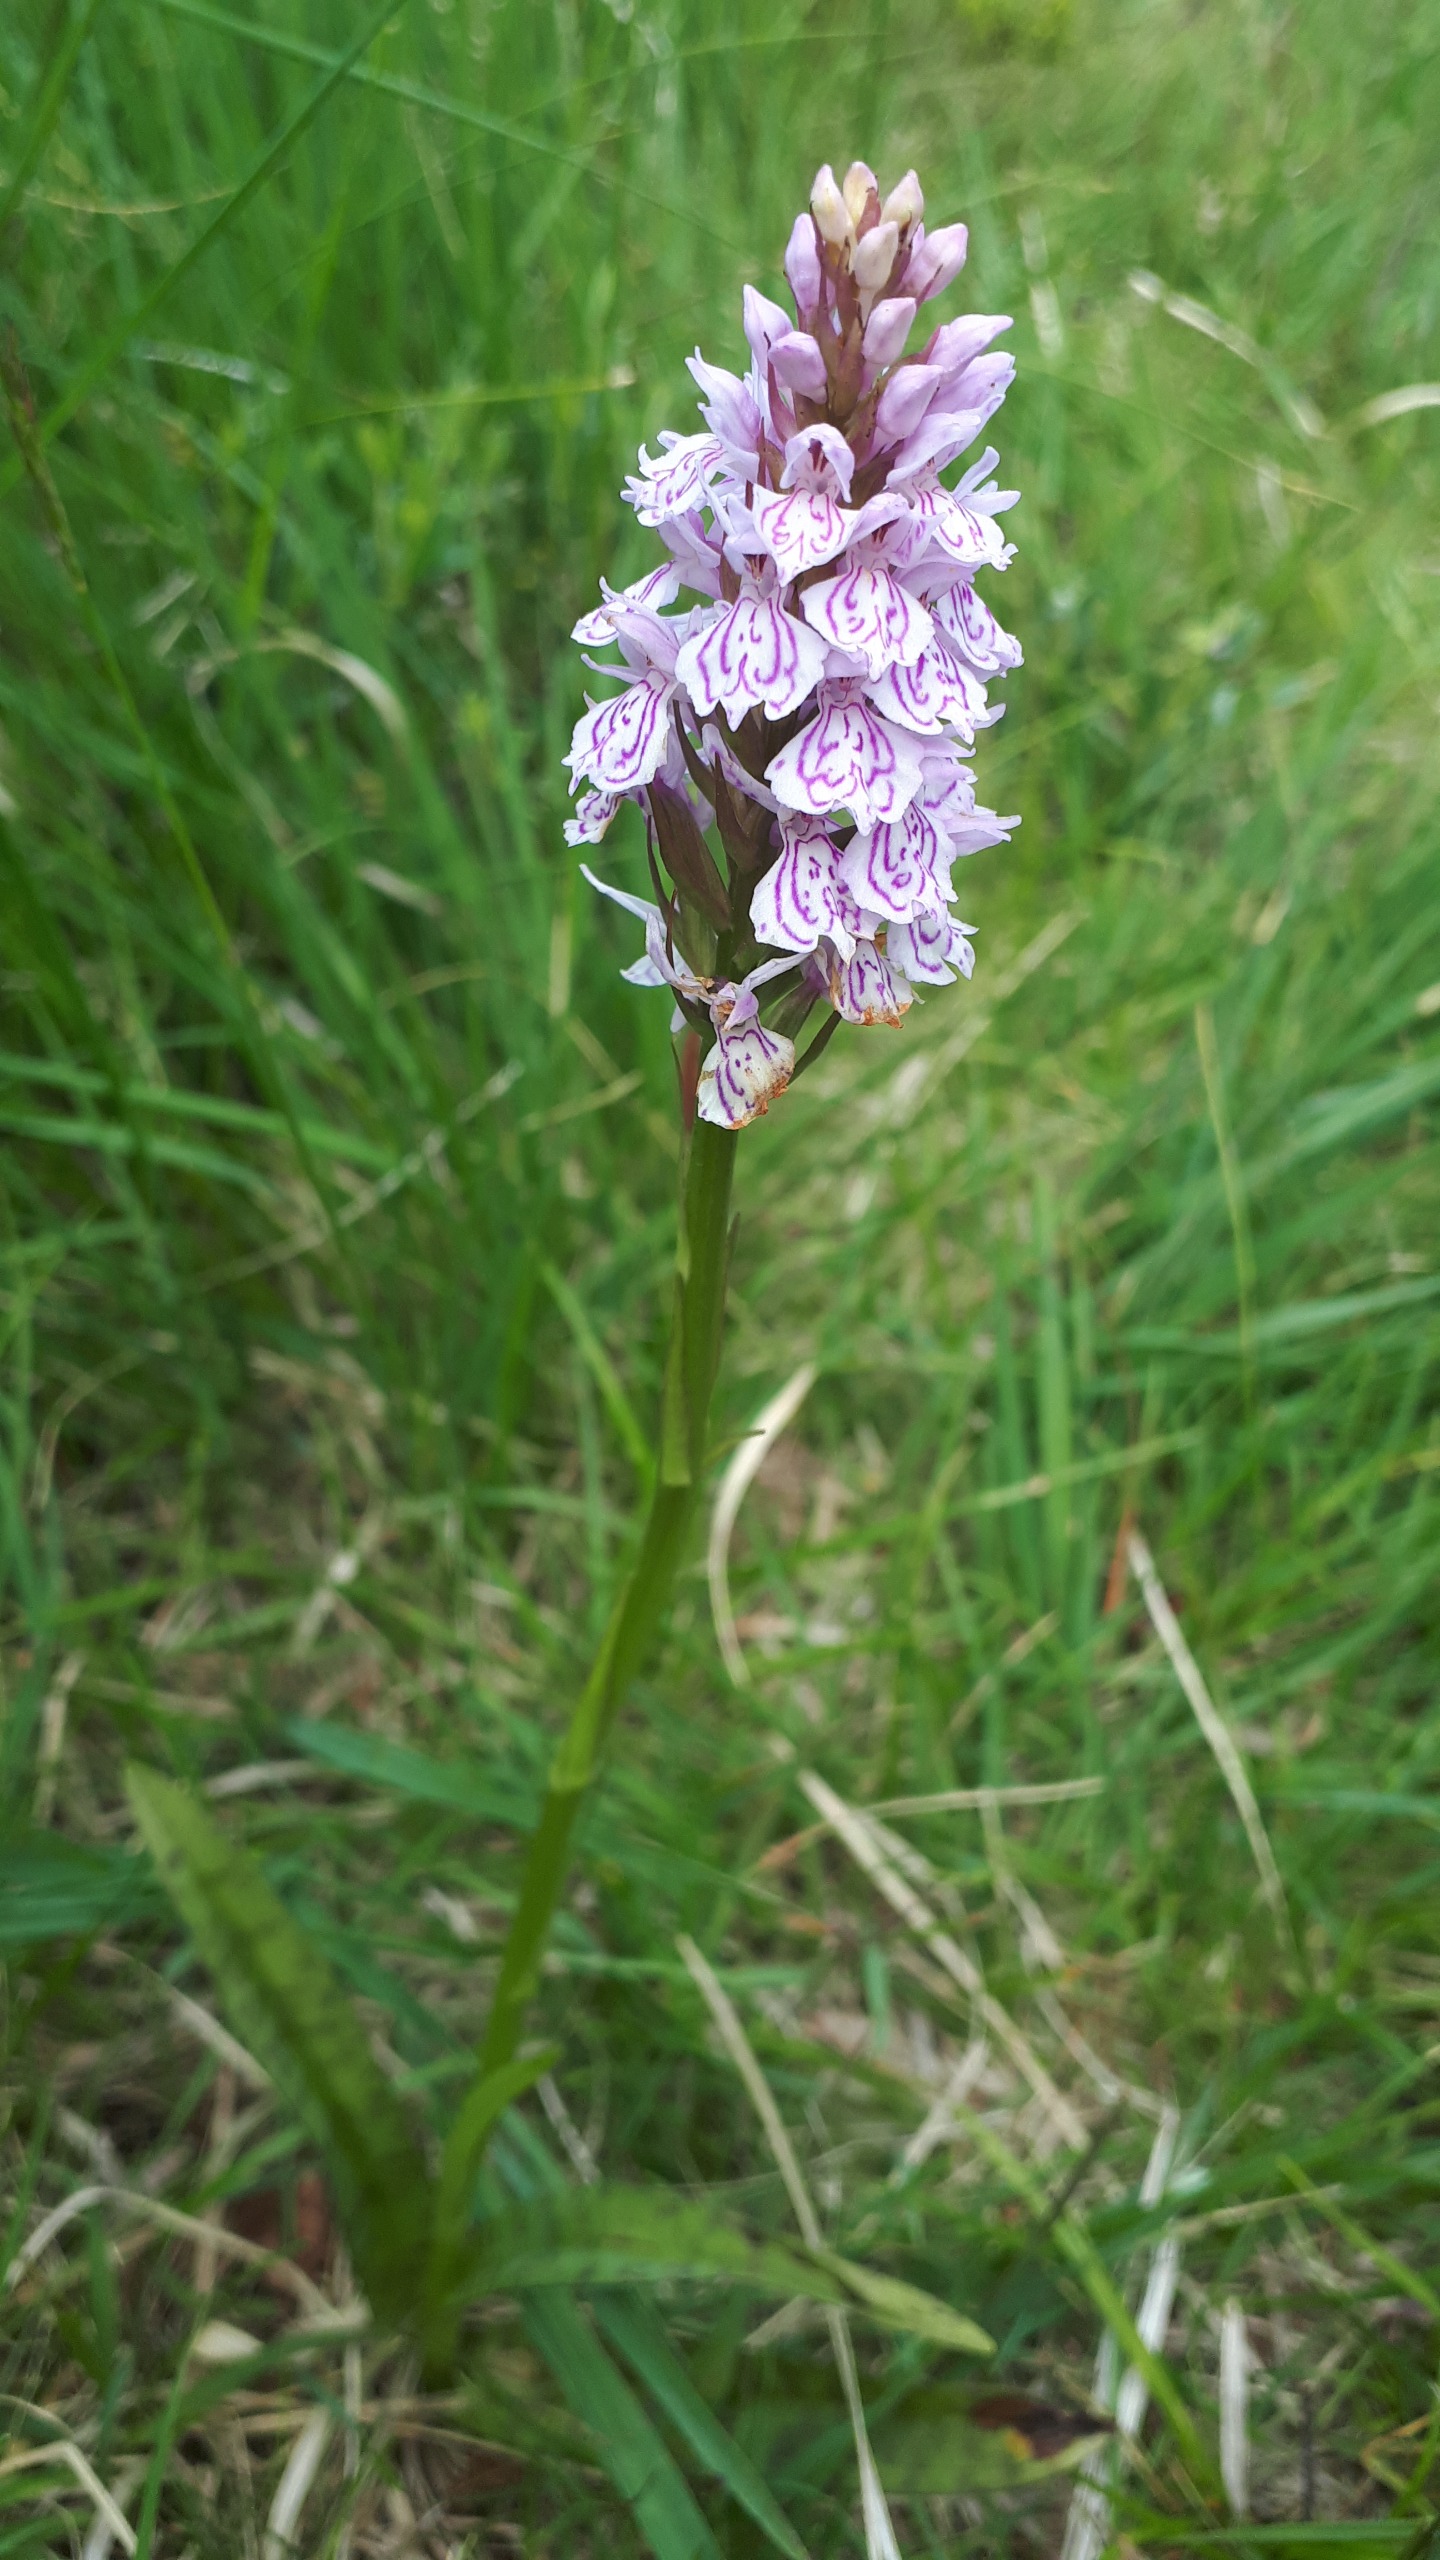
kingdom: Plantae
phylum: Tracheophyta
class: Liliopsida
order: Asparagales
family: Orchidaceae
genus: Dactylorhiza
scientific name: Dactylorhiza maculata
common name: Plettet gøgeurt
